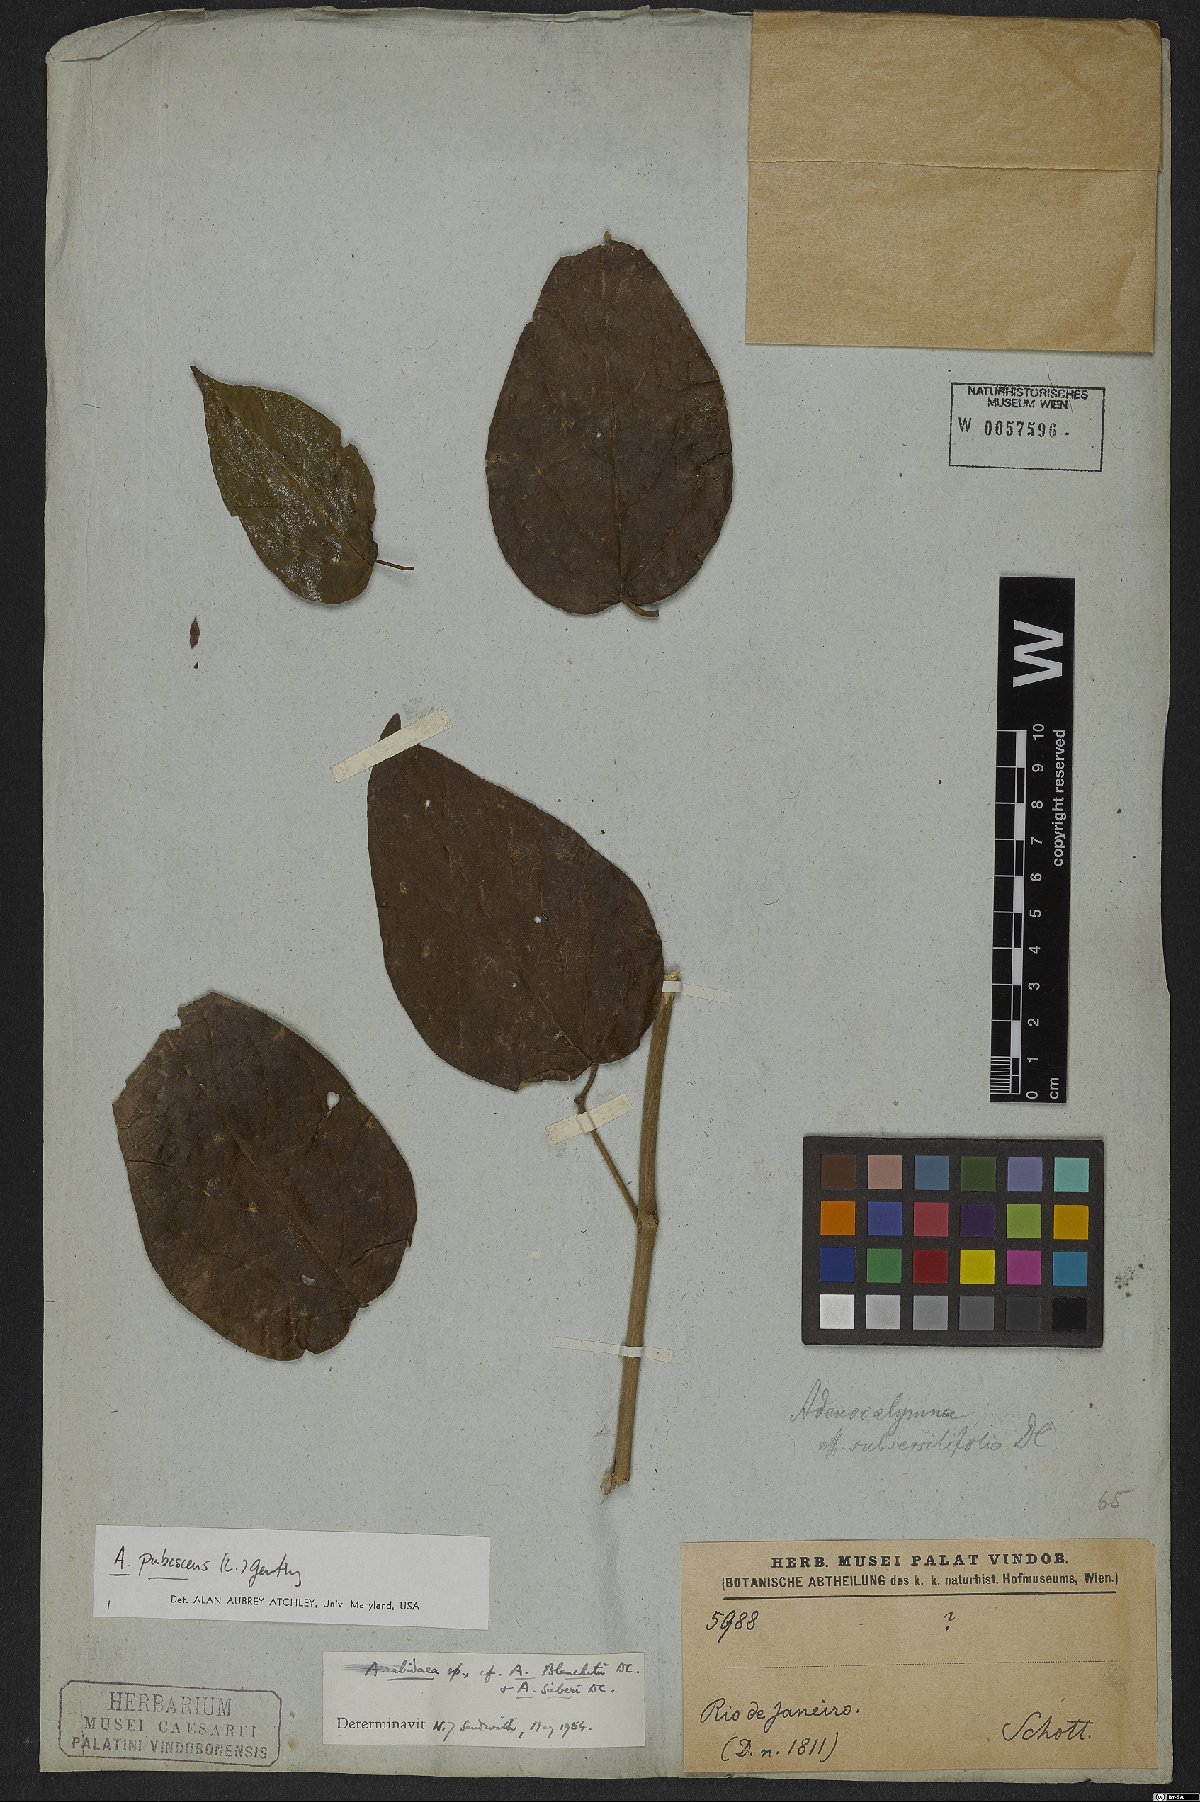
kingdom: Plantae
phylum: Tracheophyta
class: Magnoliopsida
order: Lamiales
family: Bignoniaceae
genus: Fridericia
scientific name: Fridericia pubescens
